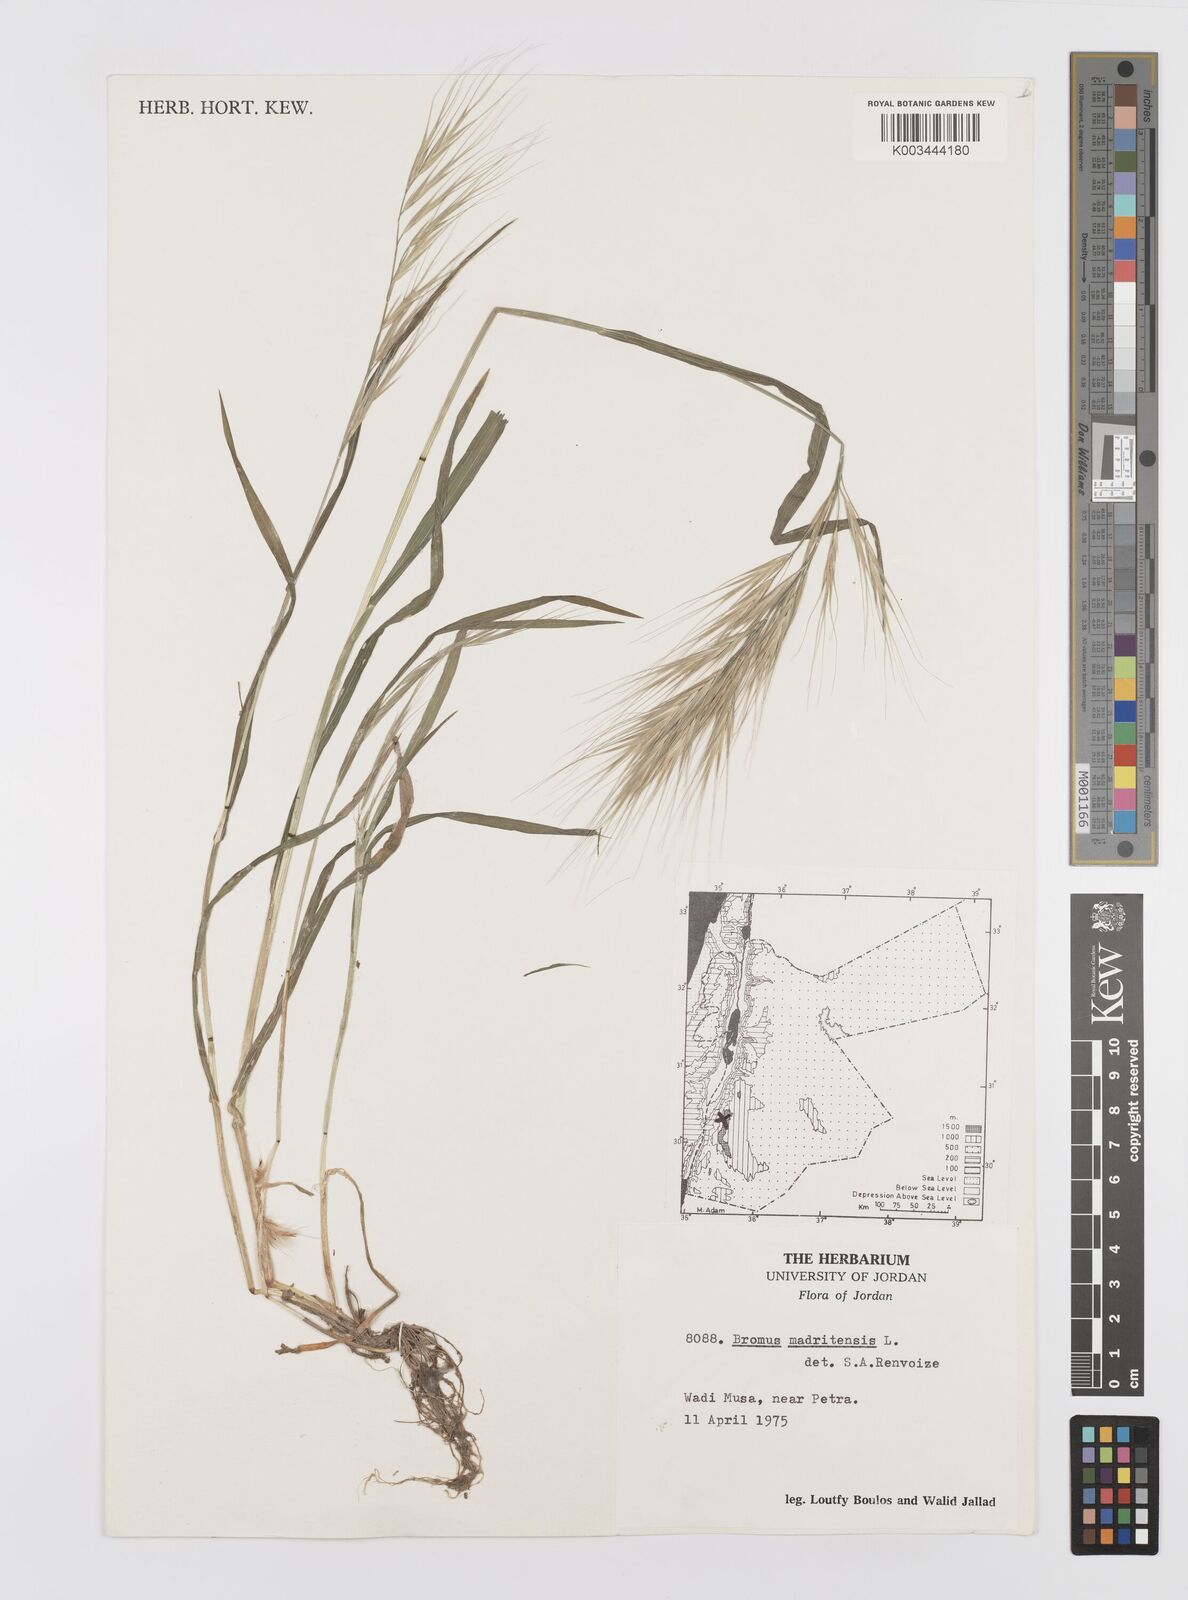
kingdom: Plantae
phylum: Tracheophyta
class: Liliopsida
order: Poales
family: Poaceae
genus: Bromus
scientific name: Bromus madritensis
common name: Compact brome
